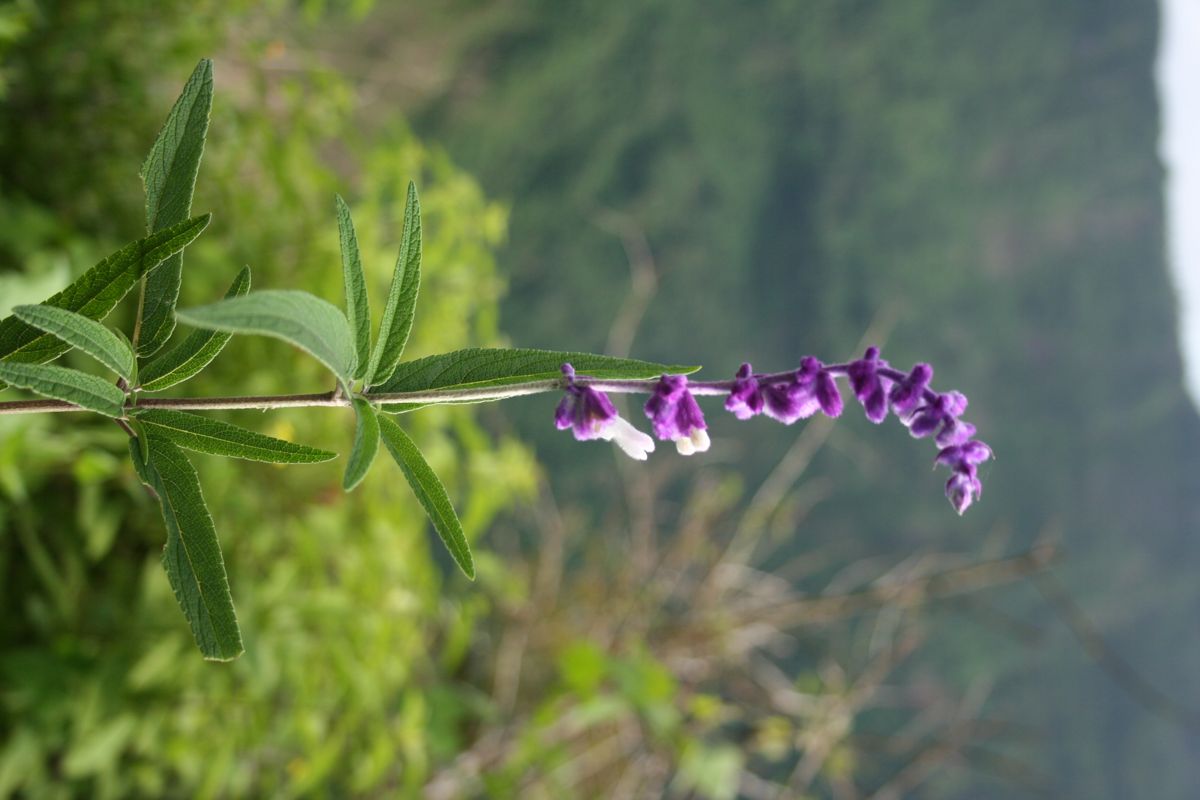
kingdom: Plantae
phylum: Tracheophyta
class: Magnoliopsida
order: Lamiales
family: Lamiaceae
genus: Salvia
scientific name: Salvia leucantha
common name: Mexican bush sage
